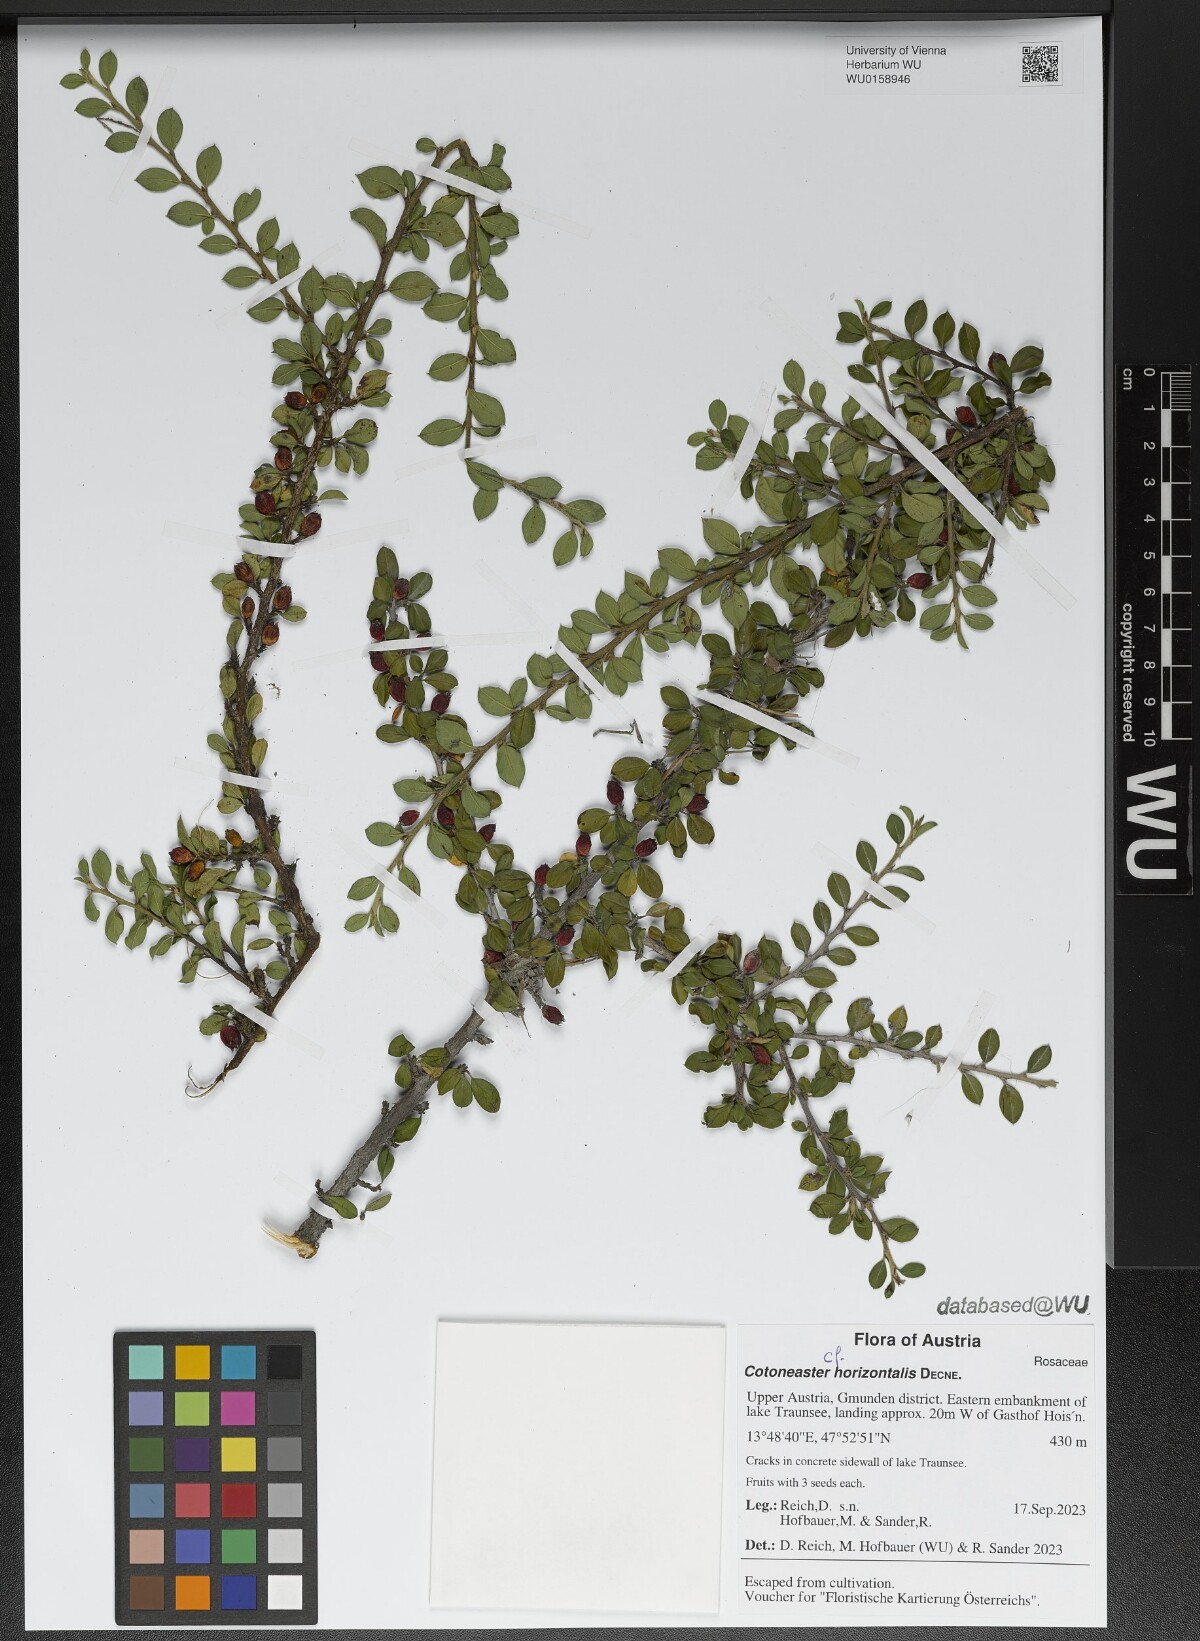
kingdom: Plantae
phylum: Tracheophyta
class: Magnoliopsida
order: Rosales
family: Rosaceae
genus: Cotoneaster
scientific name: Cotoneaster horizontalis
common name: Wall cotoneaster
